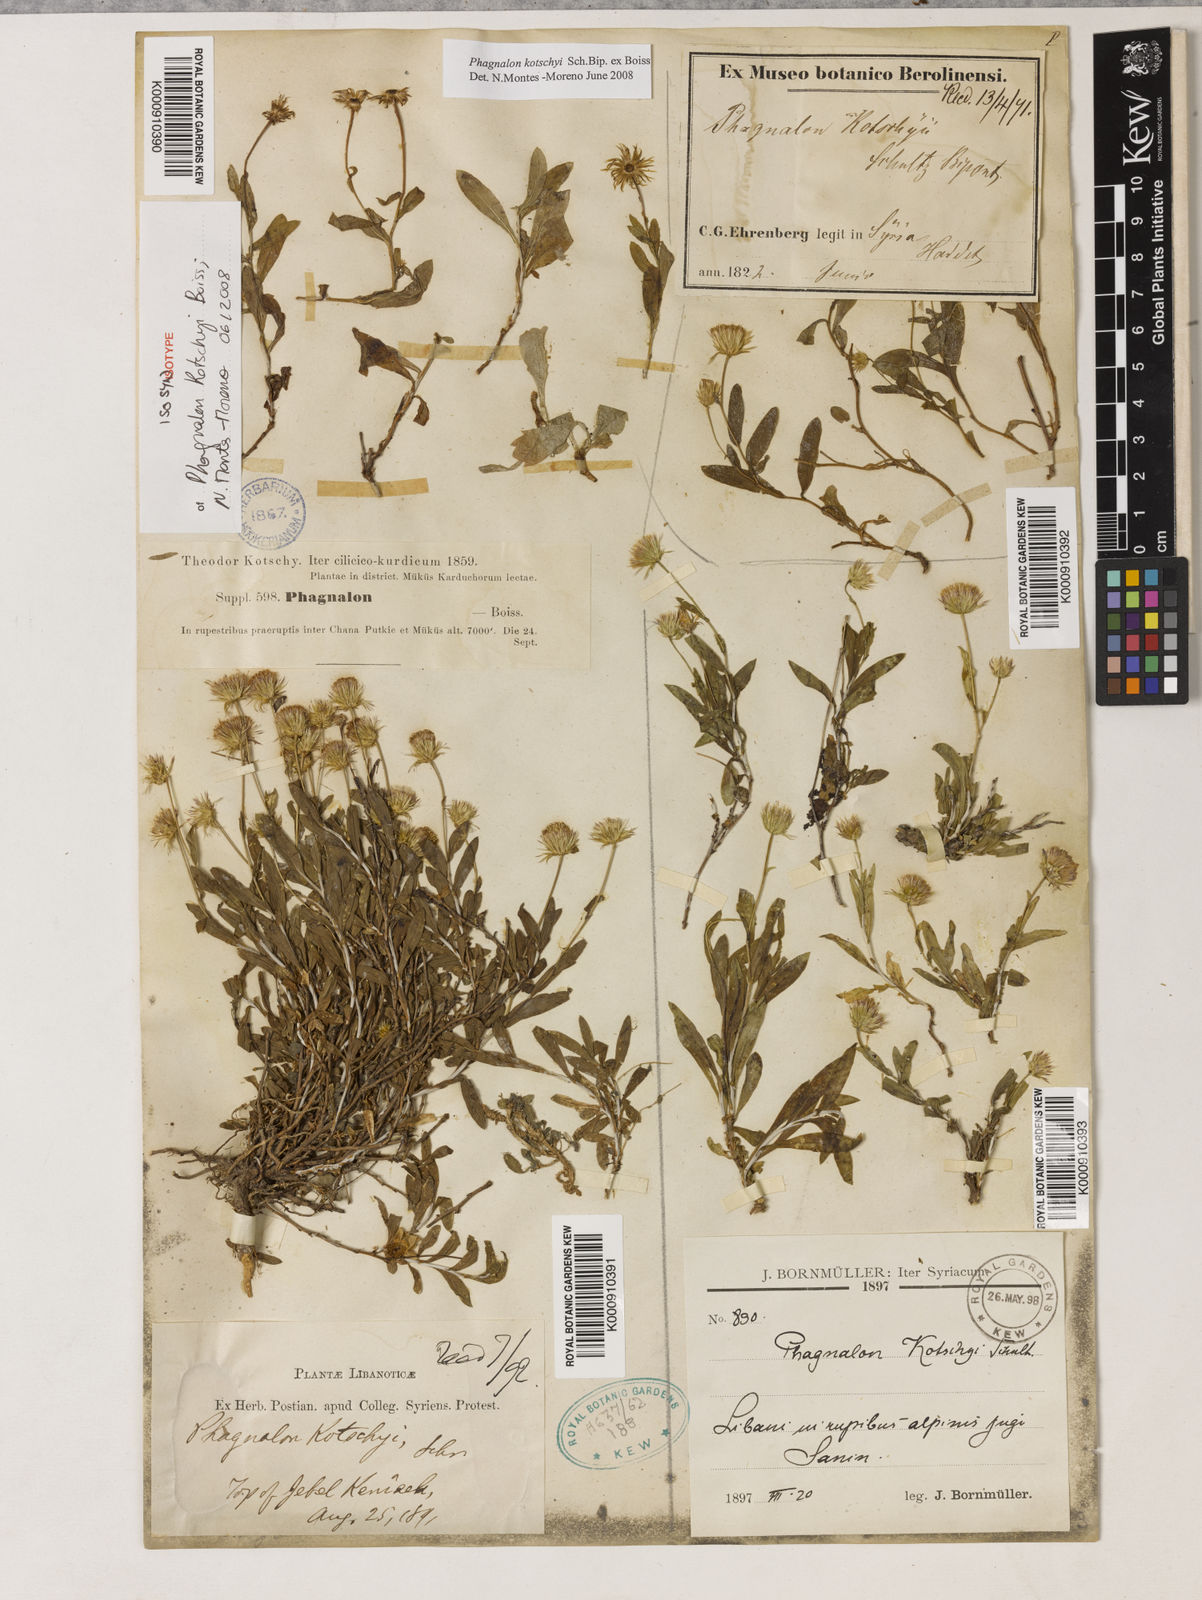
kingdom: Plantae
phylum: Tracheophyta
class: Magnoliopsida
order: Asterales
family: Asteraceae
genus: Phagnalon
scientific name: Phagnalon kotschyi
